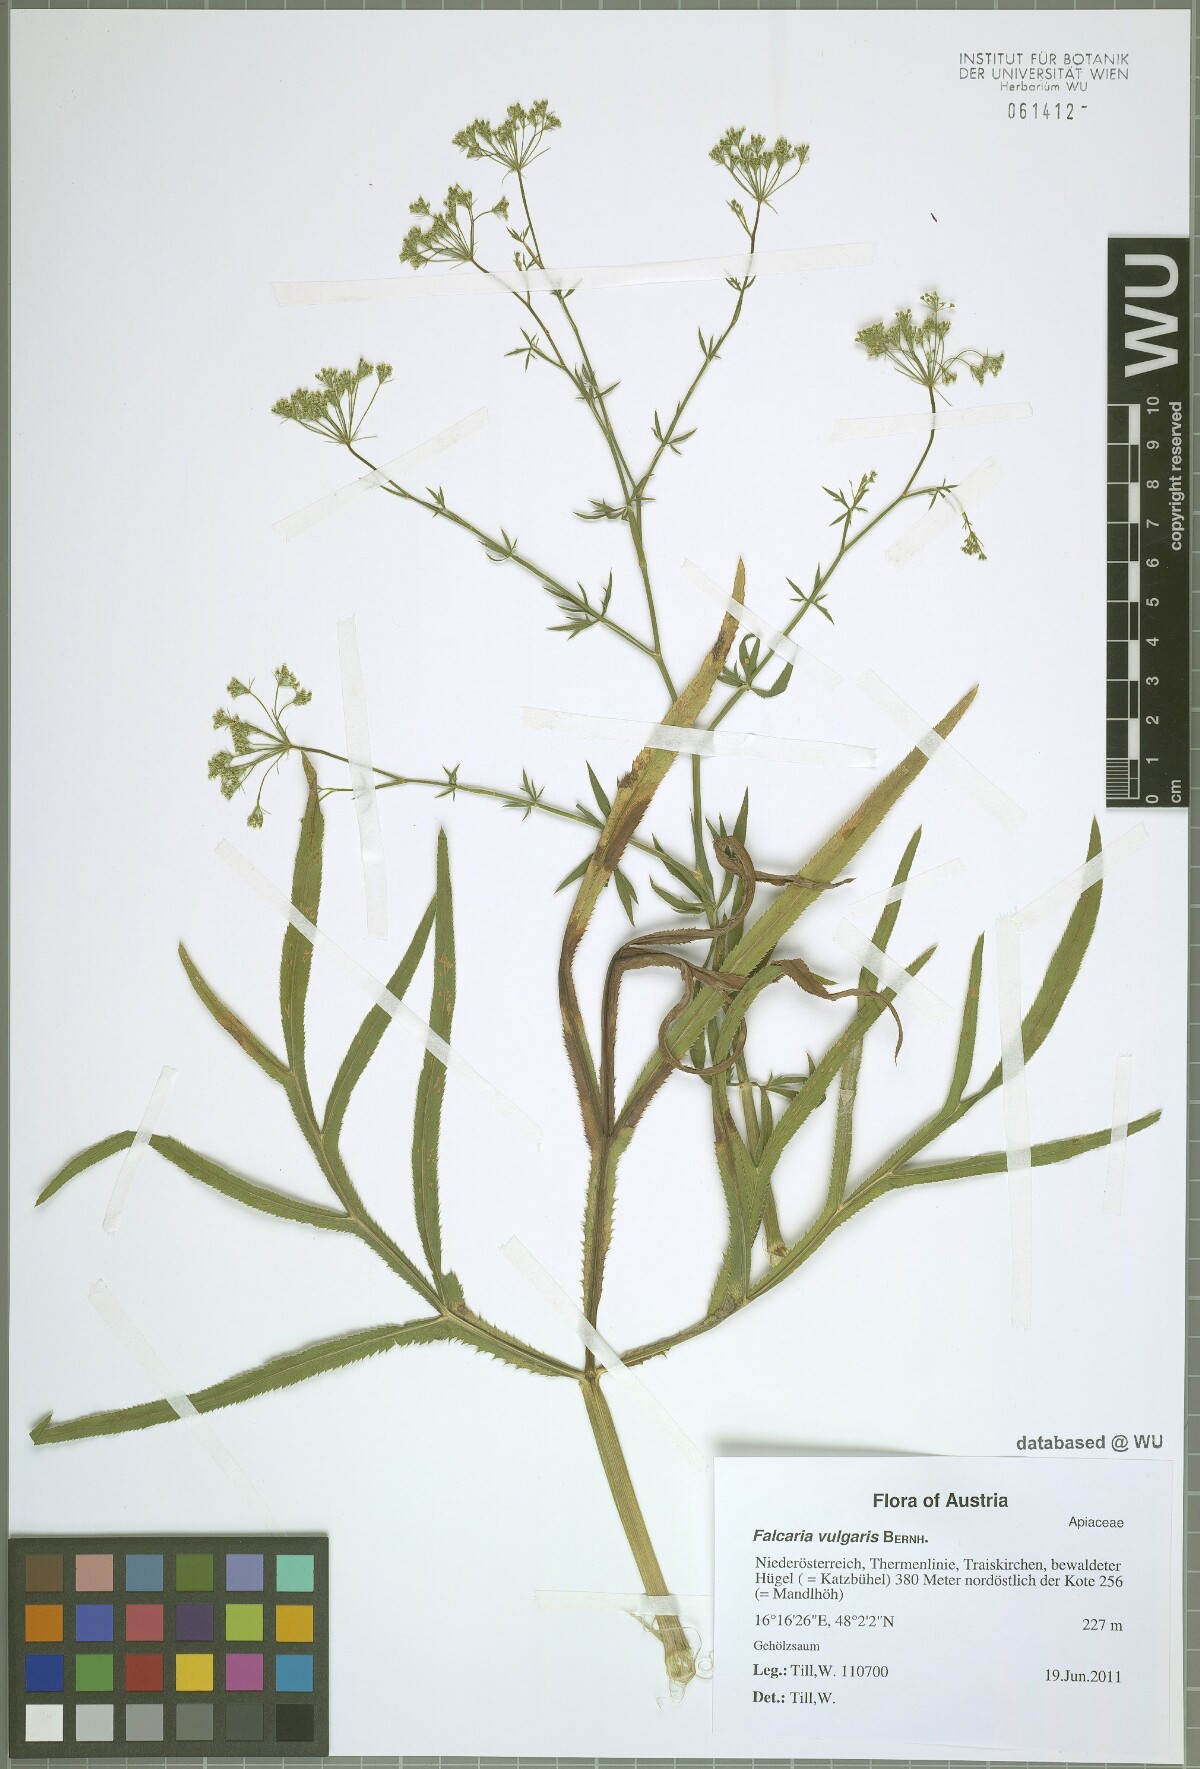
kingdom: Plantae
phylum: Tracheophyta
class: Magnoliopsida
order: Apiales
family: Apiaceae
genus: Falcaria
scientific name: Falcaria vulgaris
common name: Longleaf
